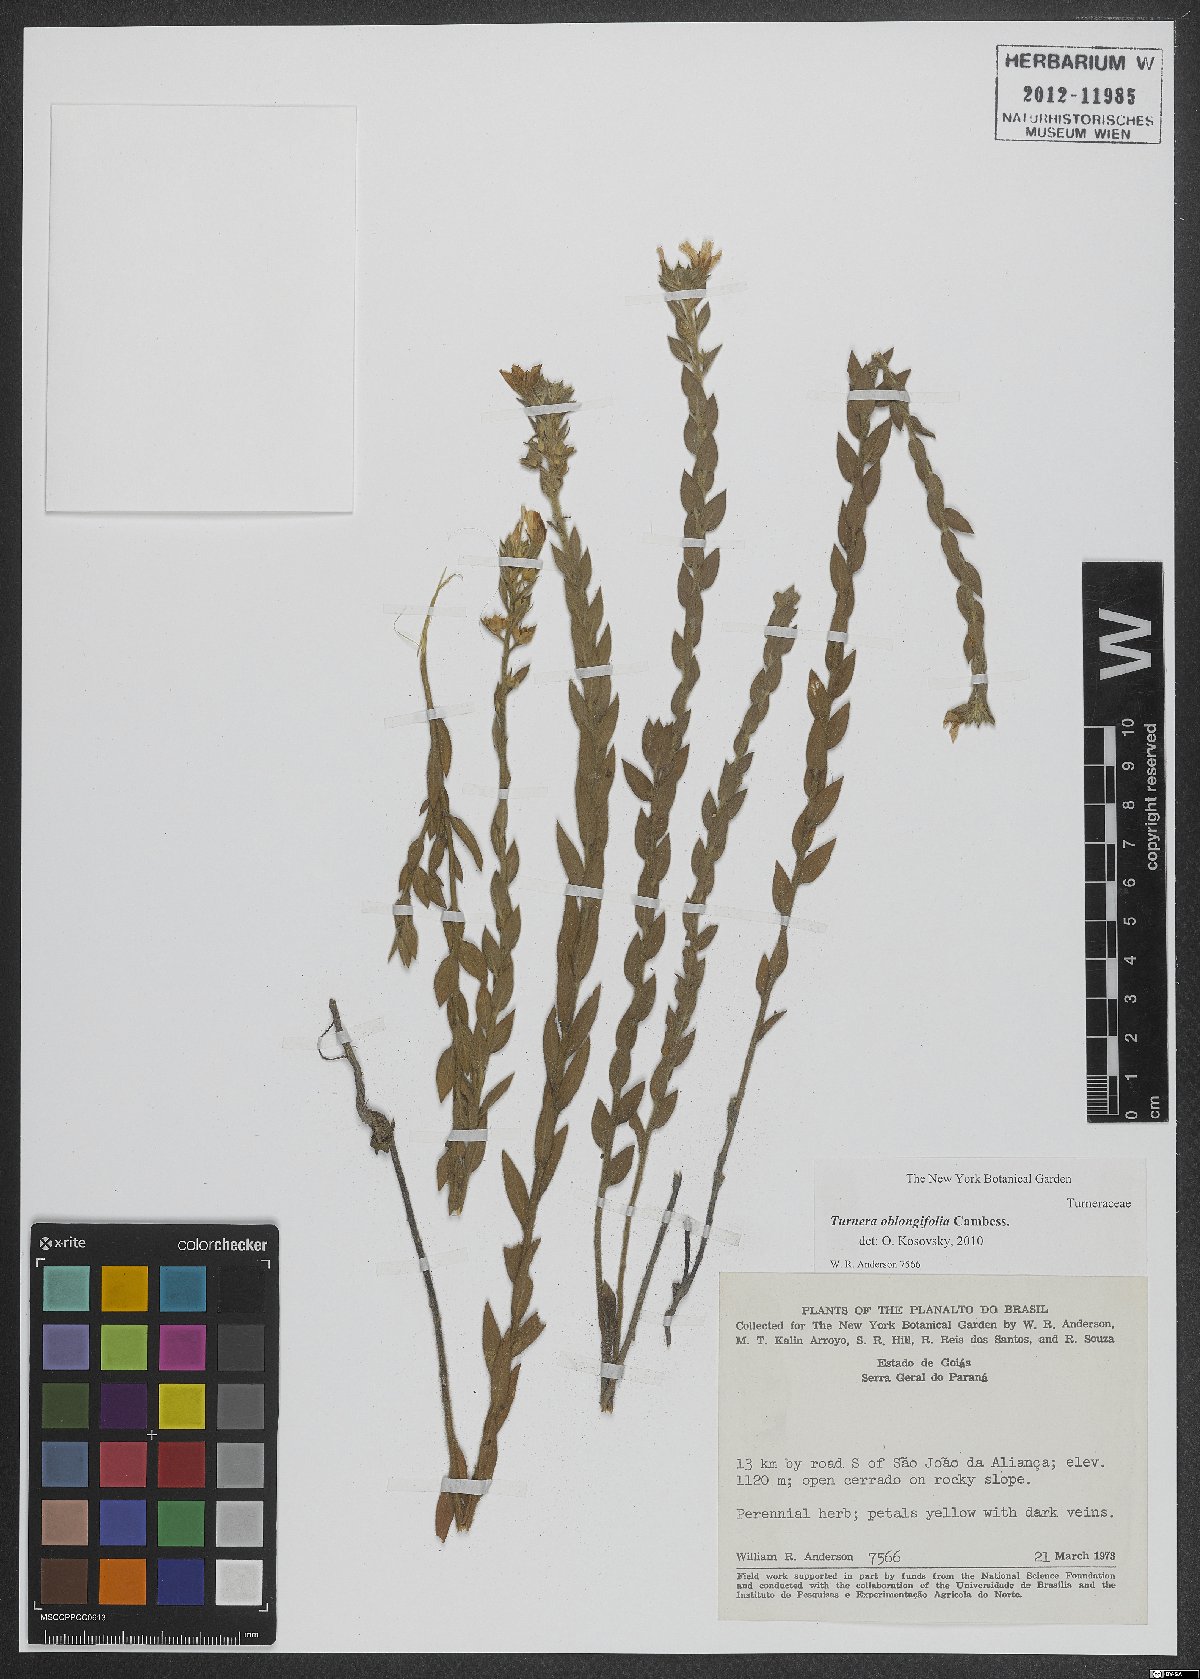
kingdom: Plantae
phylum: Tracheophyta
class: Magnoliopsida
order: Malpighiales
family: Turneraceae
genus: Turnera
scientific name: Turnera oblongifolia
